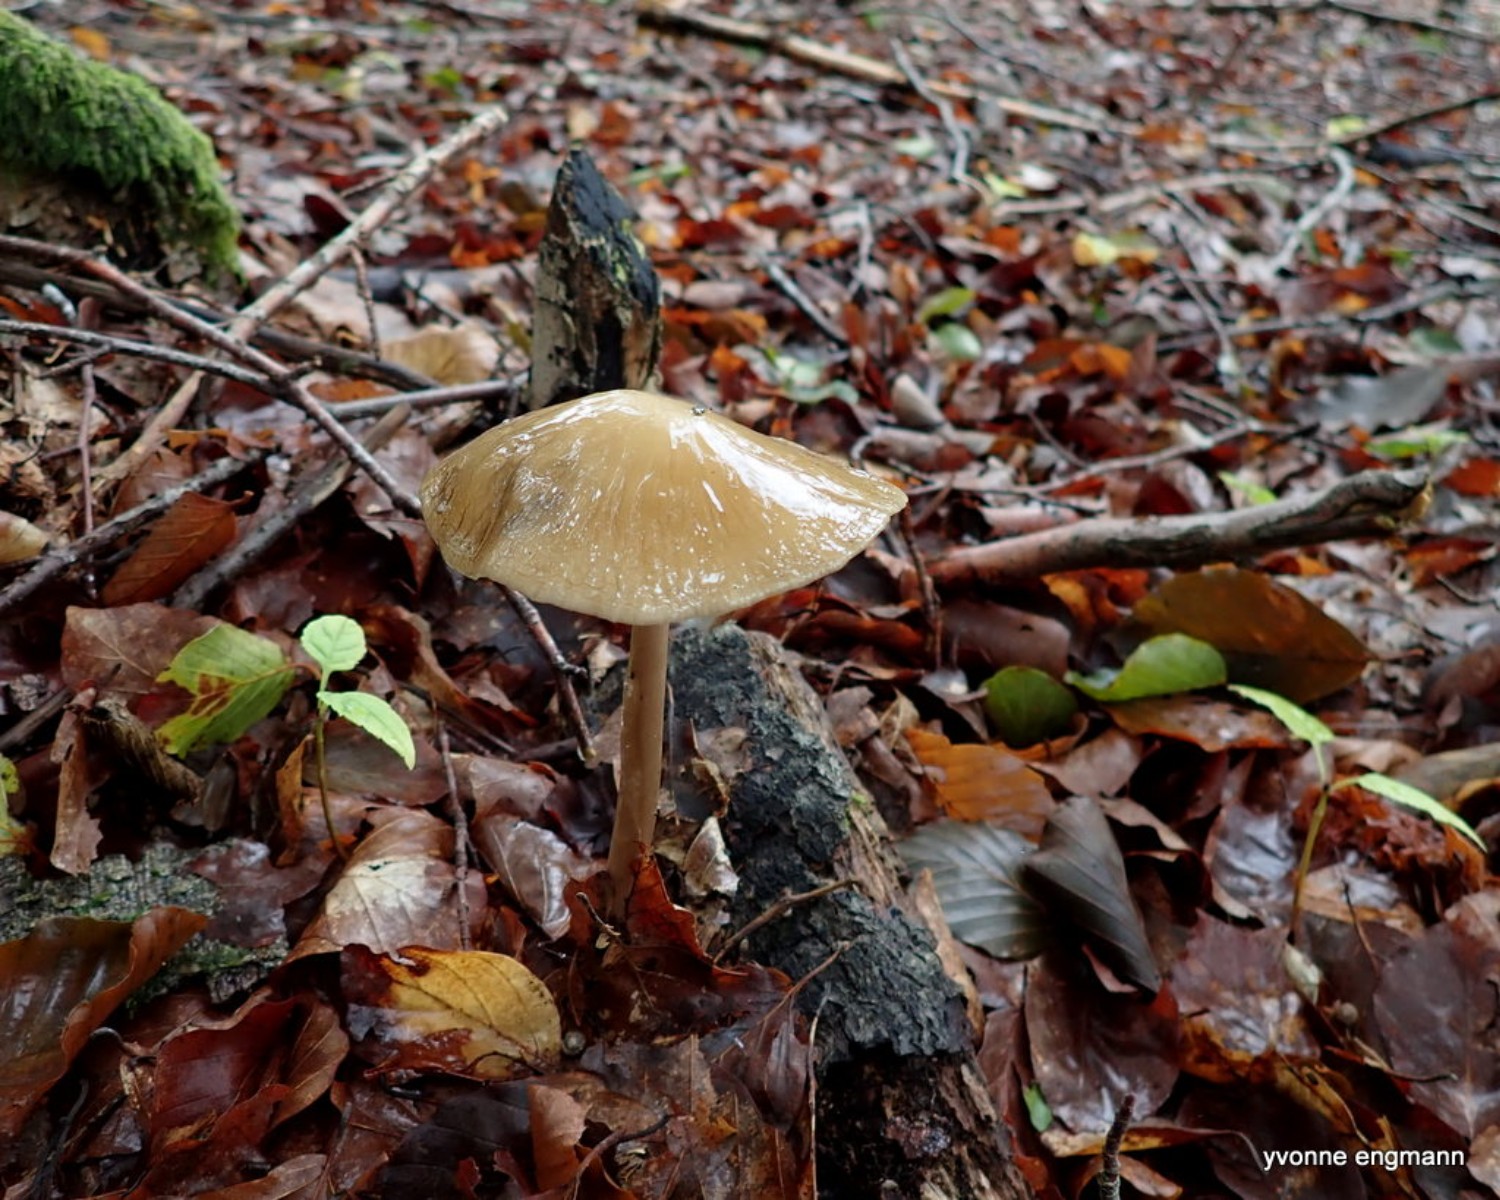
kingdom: Fungi
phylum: Basidiomycota
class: Agaricomycetes
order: Agaricales
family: Physalacriaceae
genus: Hymenopellis
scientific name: Hymenopellis radicata
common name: almindelig pælerodshat
